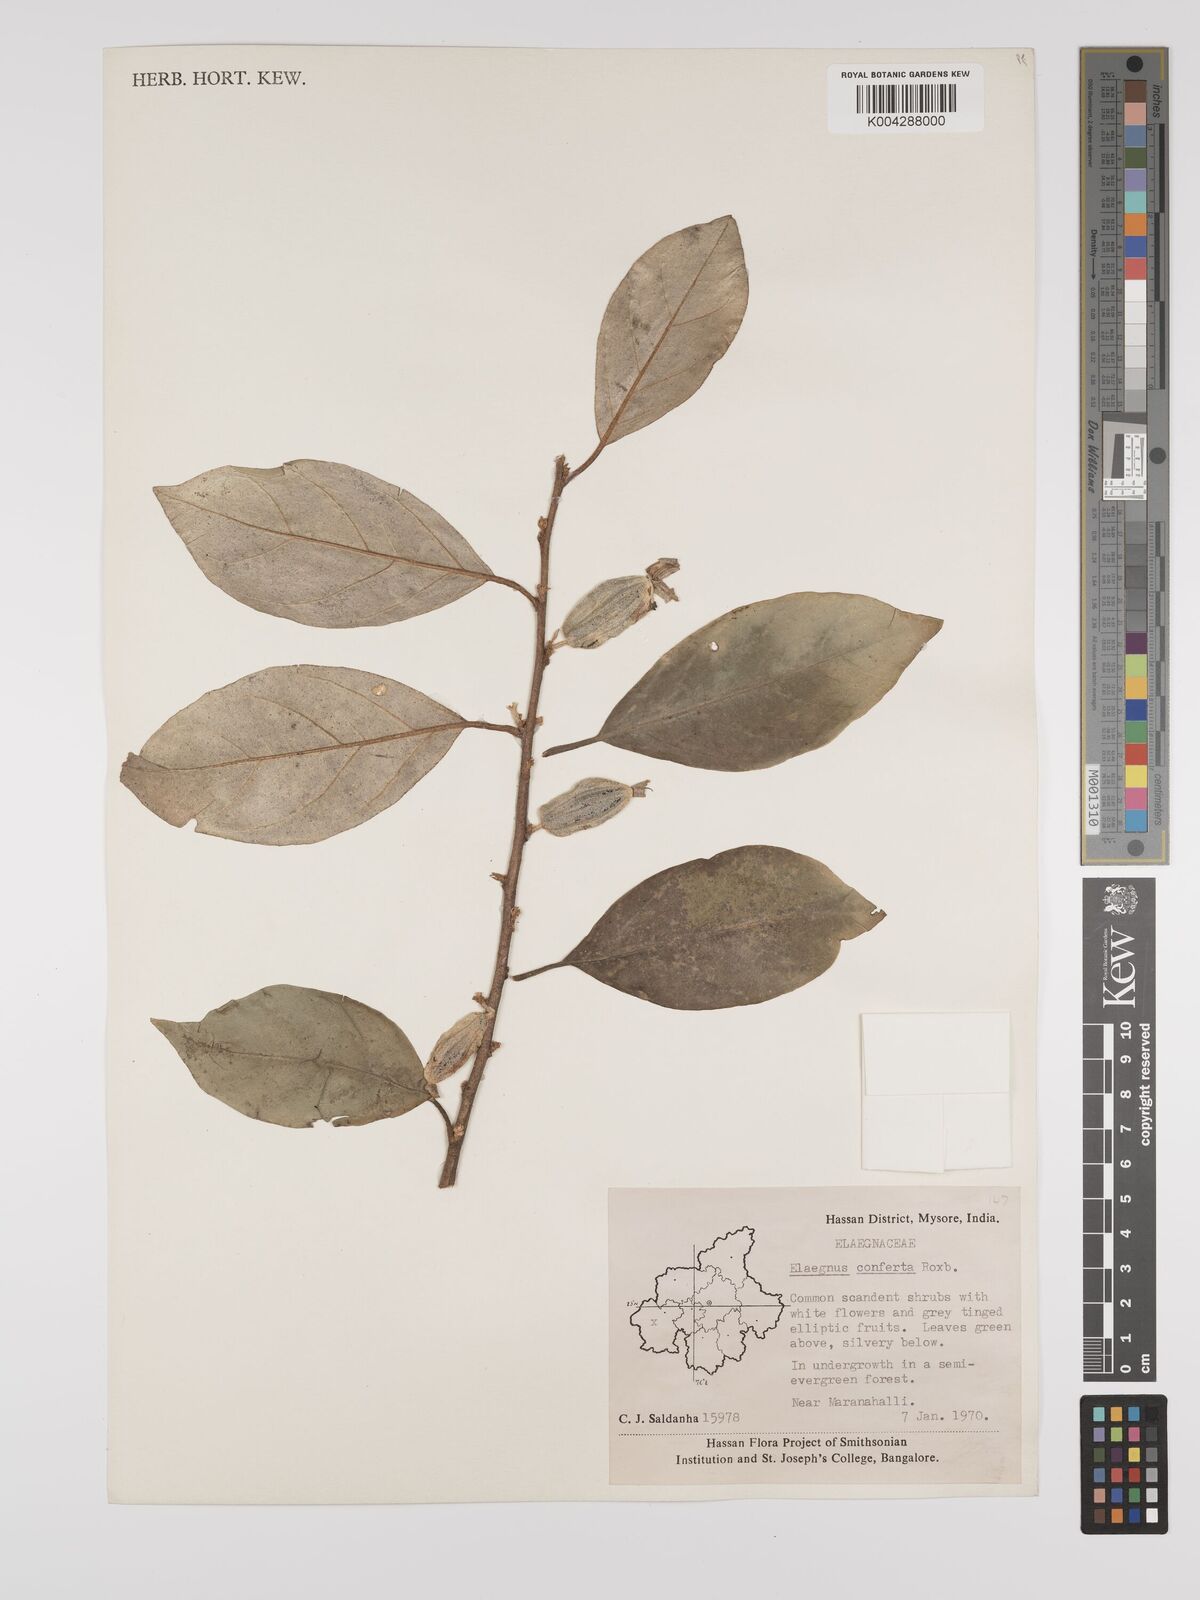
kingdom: Plantae
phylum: Tracheophyta
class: Magnoliopsida
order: Rosales
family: Elaeagnaceae
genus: Elaeagnus
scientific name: Elaeagnus latifolia
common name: Oleaster
